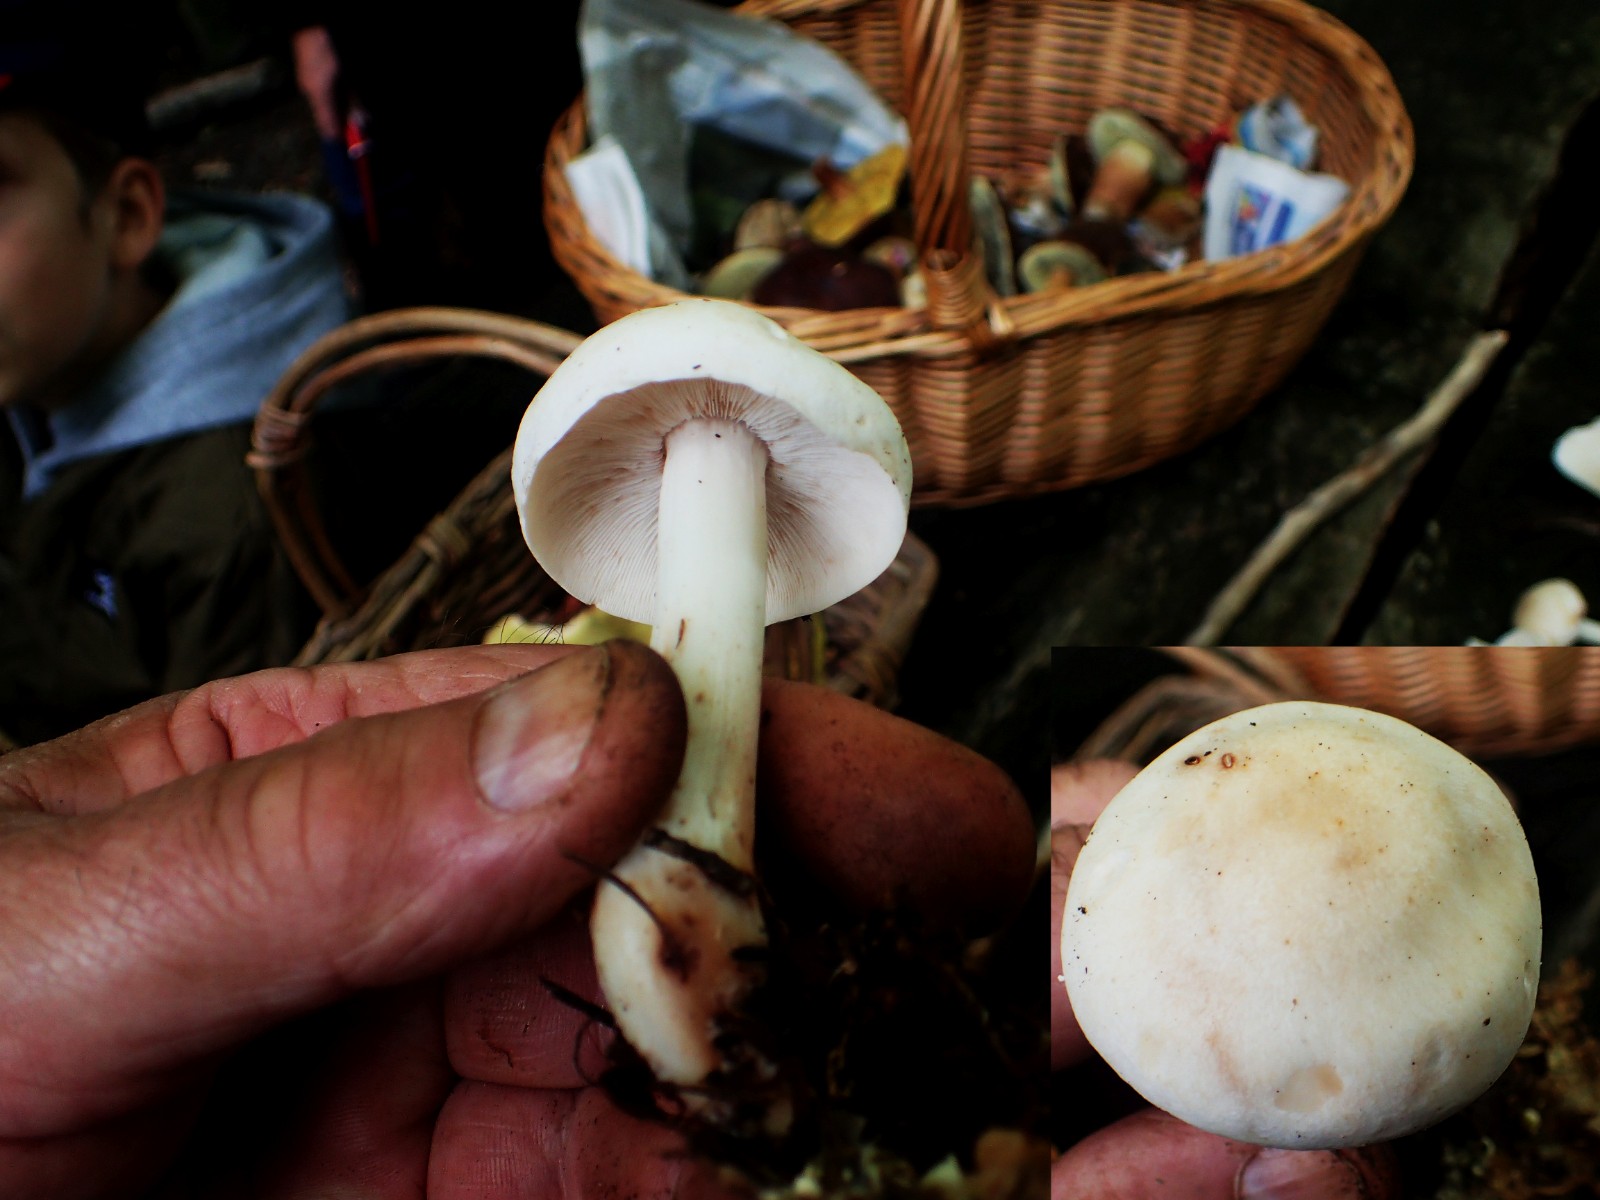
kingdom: Fungi
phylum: Basidiomycota
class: Agaricomycetes
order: Agaricales
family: Omphalotaceae
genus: Rhodocollybia
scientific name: Rhodocollybia maculata
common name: plettet fladhat
